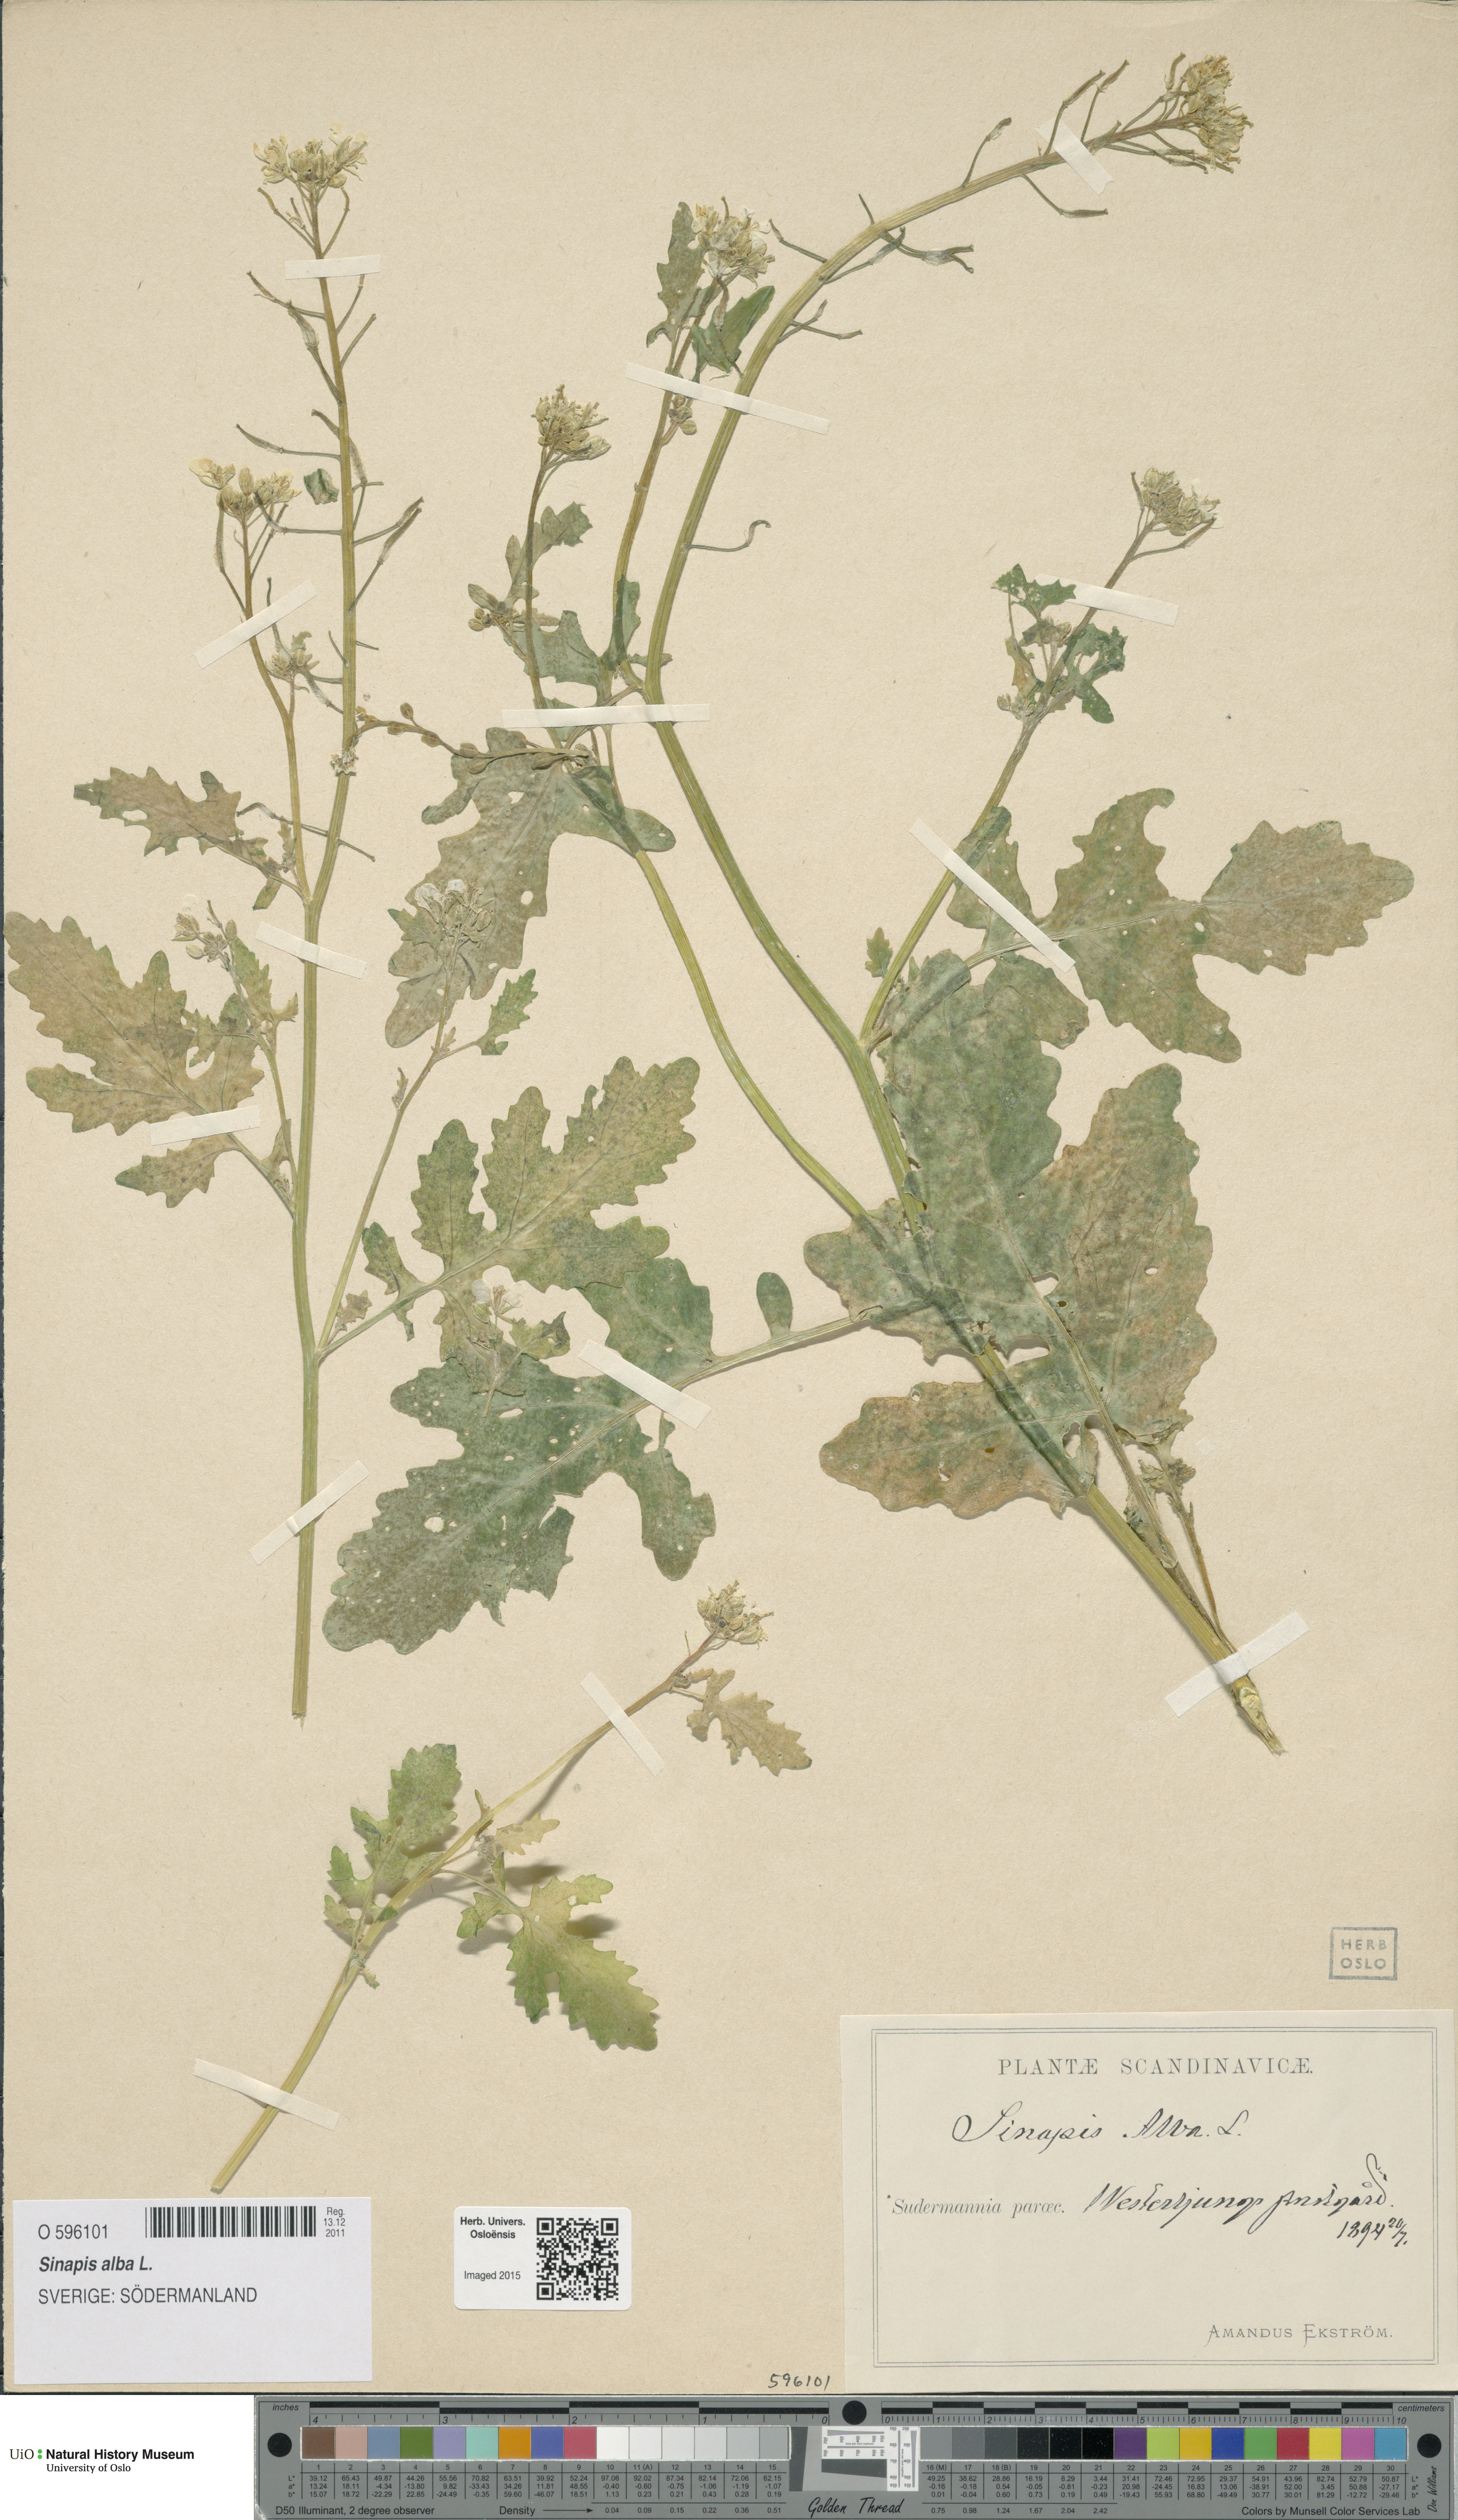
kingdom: Plantae
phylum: Tracheophyta
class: Magnoliopsida
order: Brassicales
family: Brassicaceae
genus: Sinapis
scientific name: Sinapis alba
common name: White mustard
